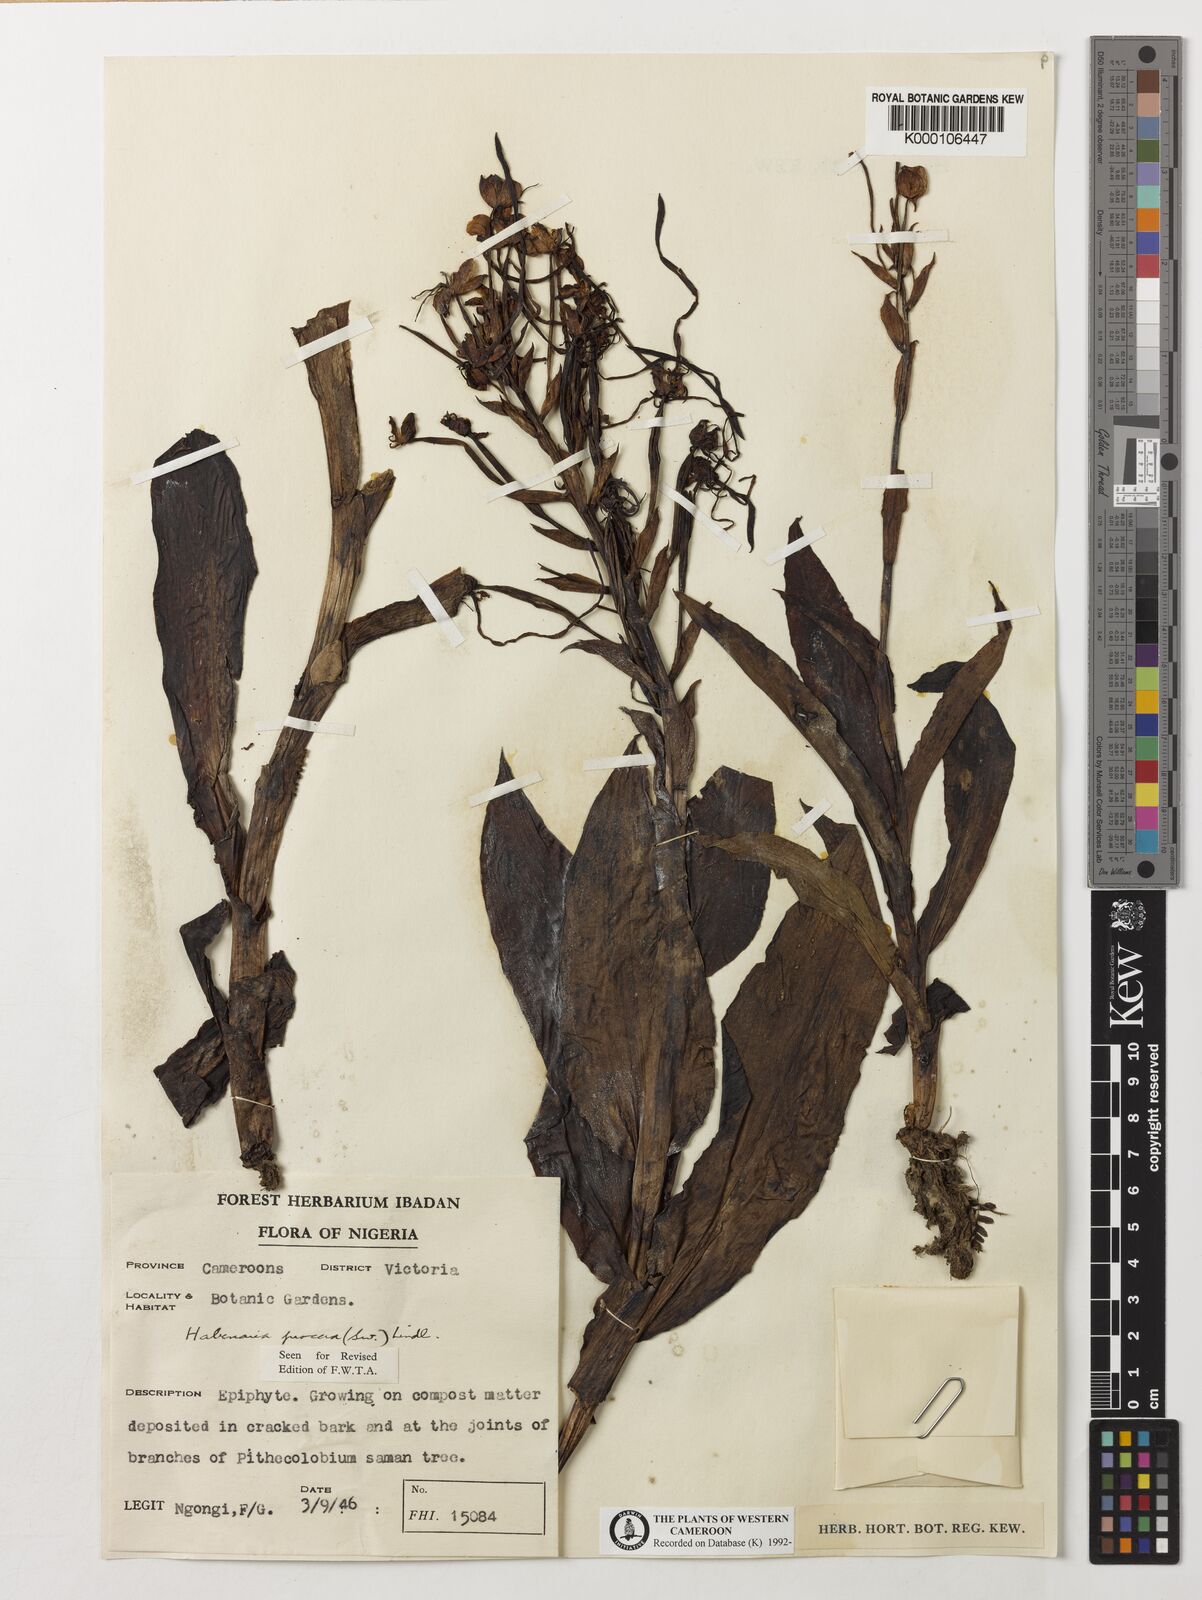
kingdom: Plantae
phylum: Tracheophyta
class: Liliopsida
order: Asparagales
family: Orchidaceae
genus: Habenaria
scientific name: Habenaria procera
